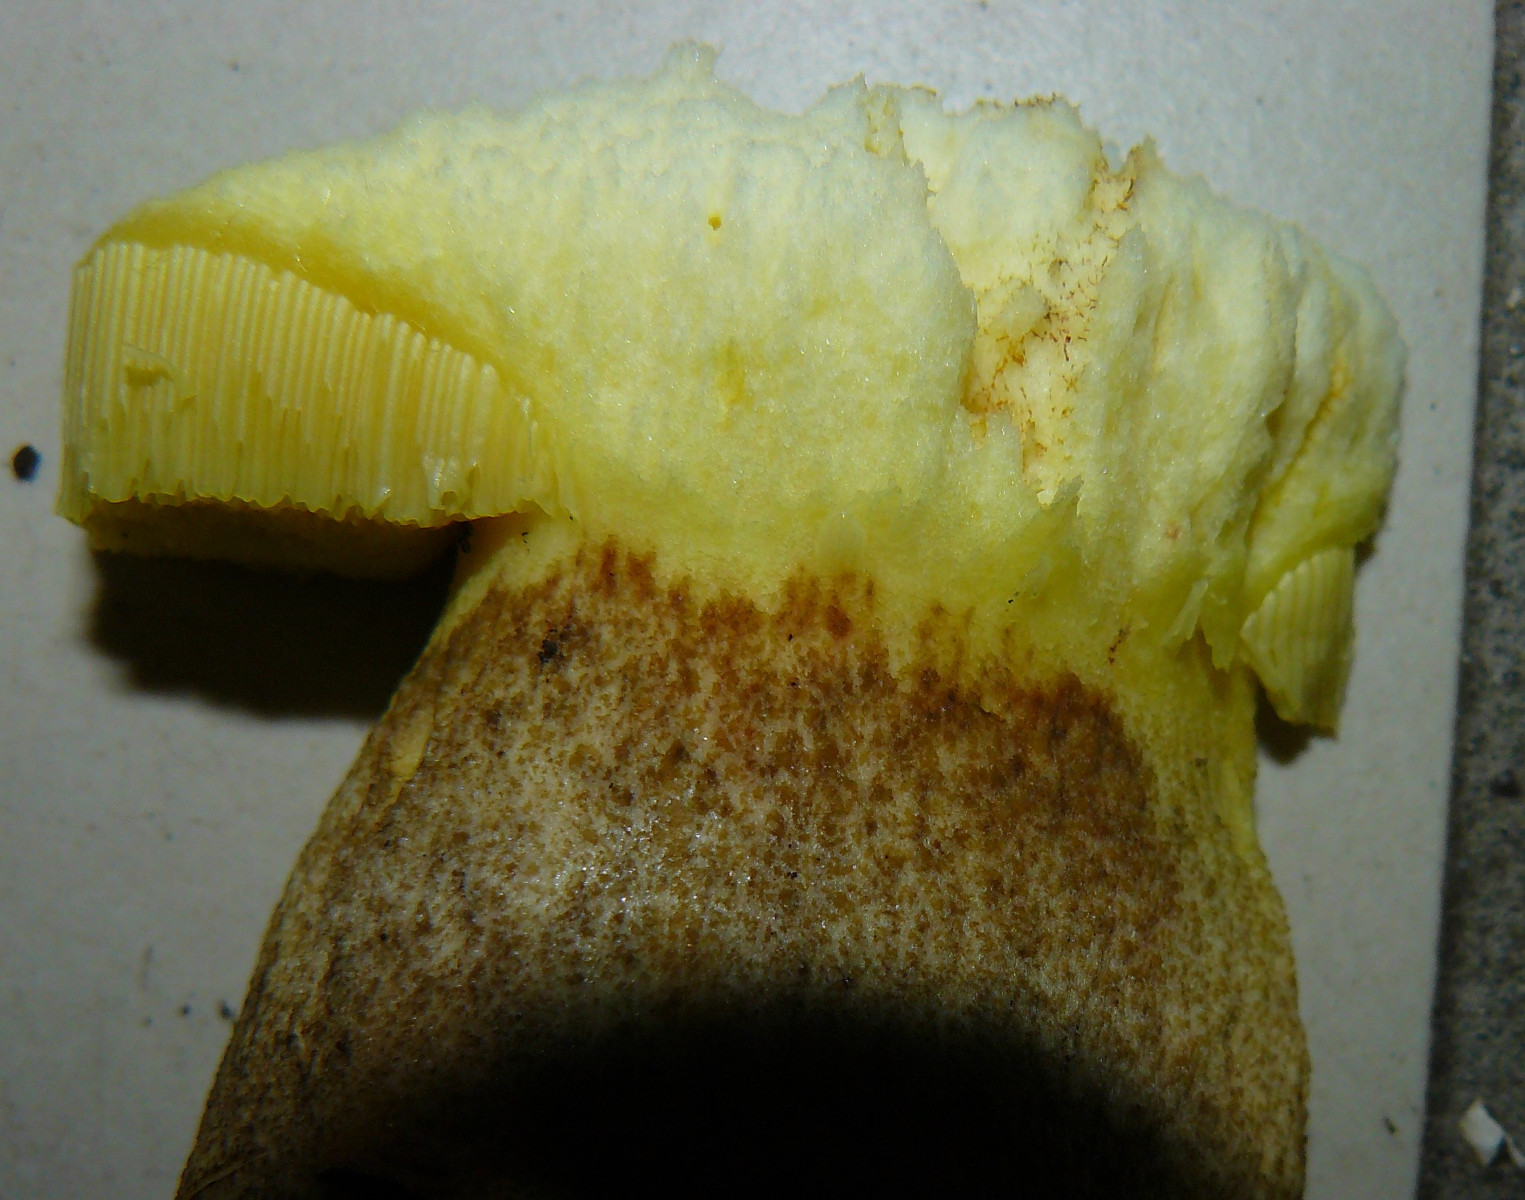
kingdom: Fungi
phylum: Basidiomycota
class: Agaricomycetes
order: Boletales
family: Boletaceae
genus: Hemileccinum
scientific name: Hemileccinum impolitum
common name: bleg rørhat
